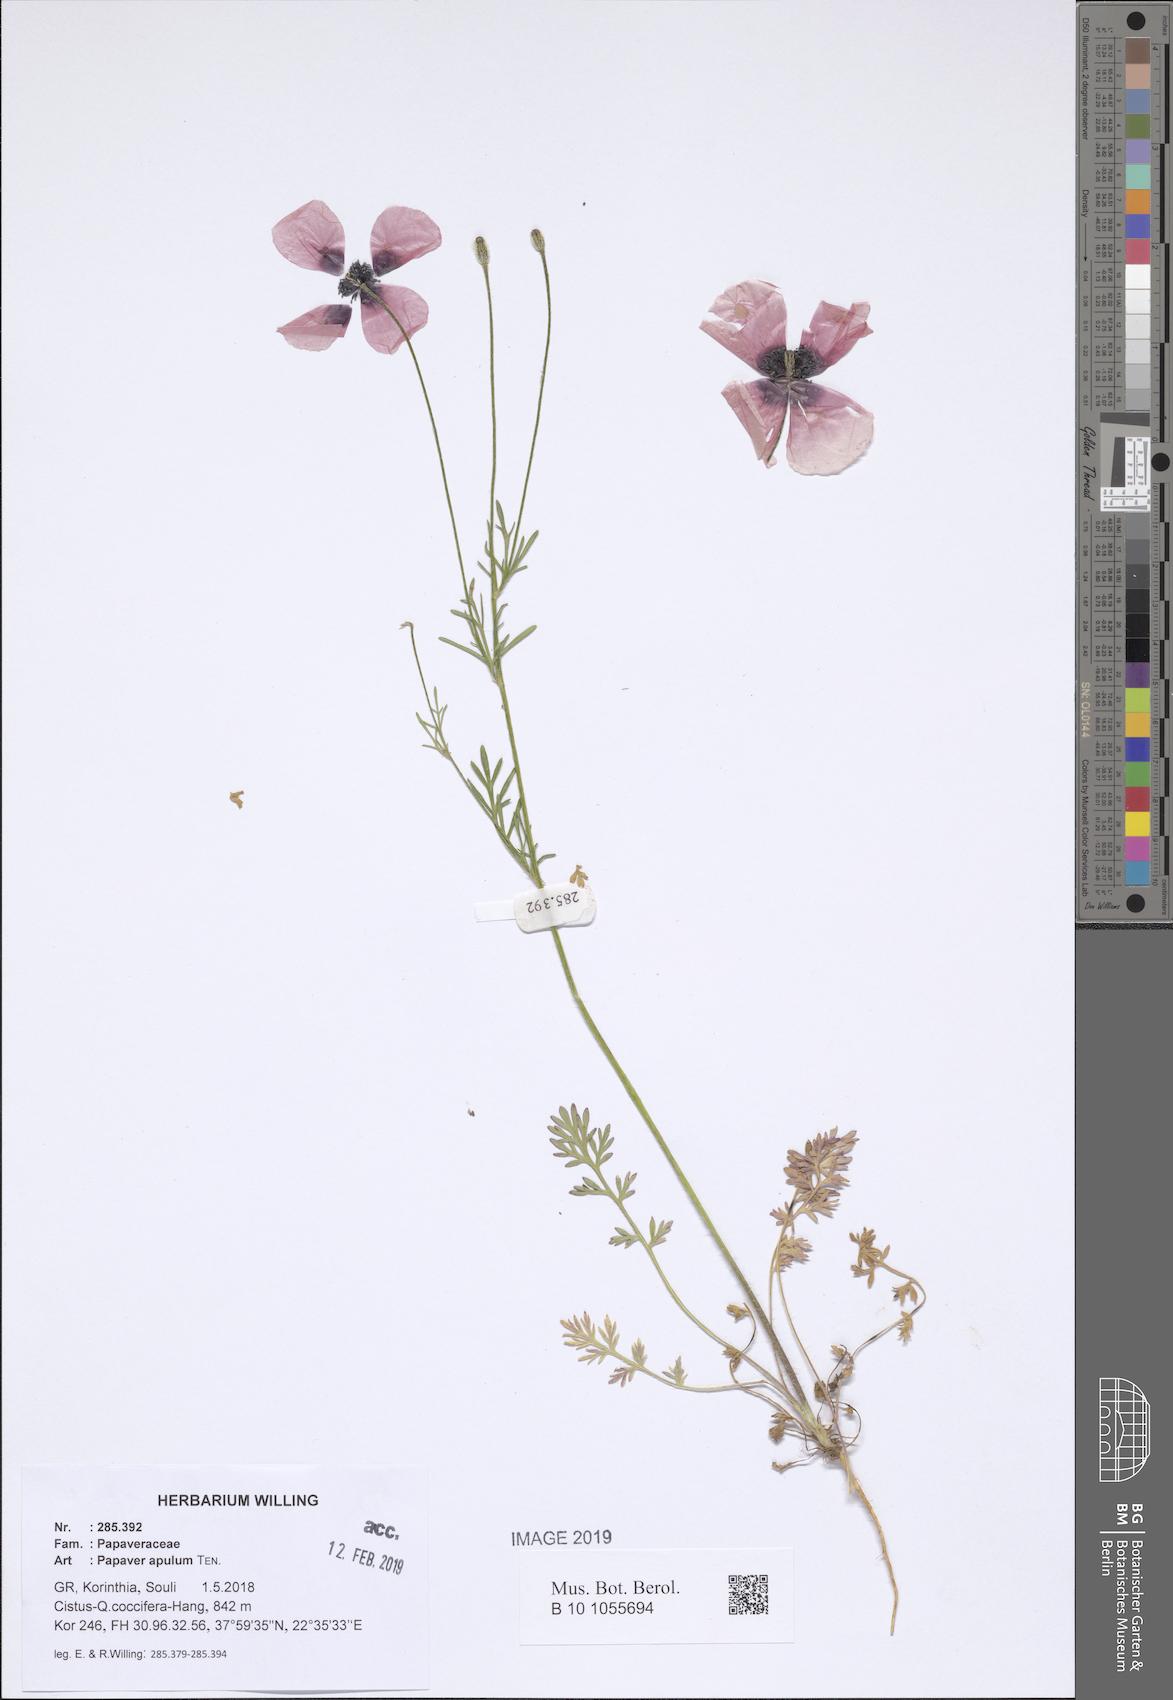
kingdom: Plantae
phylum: Tracheophyta
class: Magnoliopsida
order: Ranunculales
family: Papaveraceae
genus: Roemeria
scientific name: Roemeria apula
